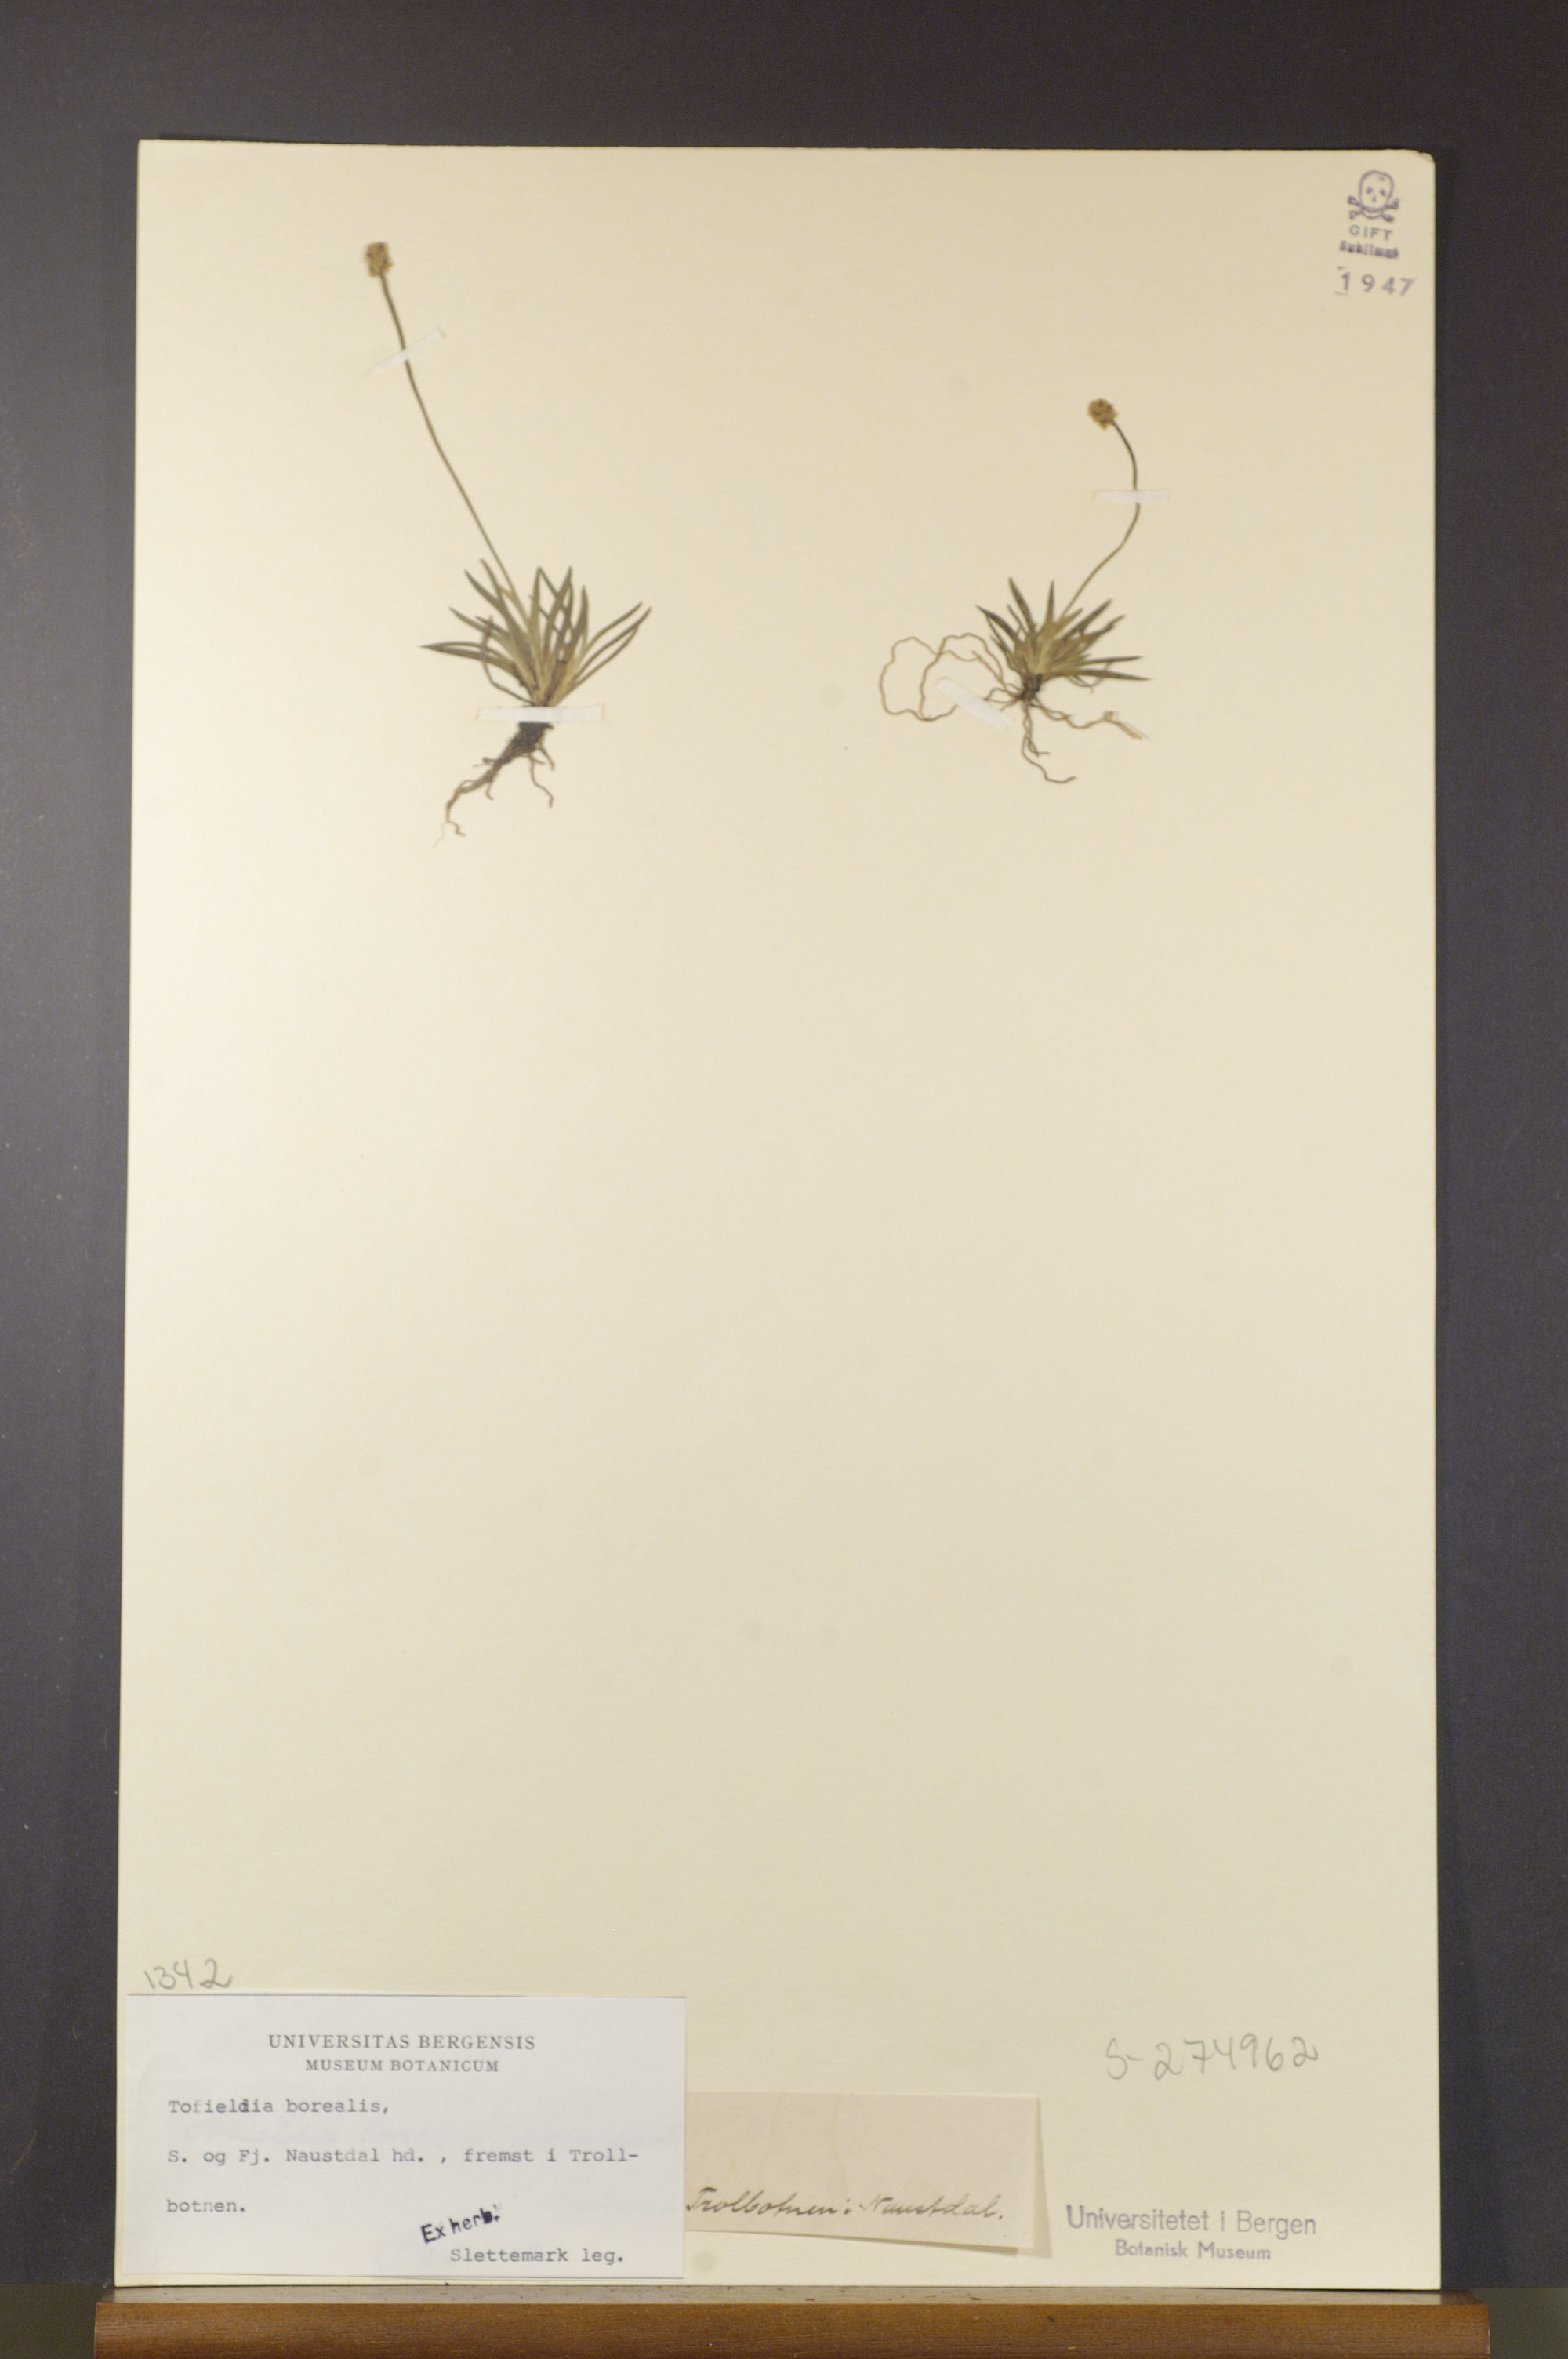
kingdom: Plantae
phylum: Tracheophyta
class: Liliopsida
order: Alismatales
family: Tofieldiaceae
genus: Tofieldia
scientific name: Tofieldia pusilla
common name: Scottish false asphodel
